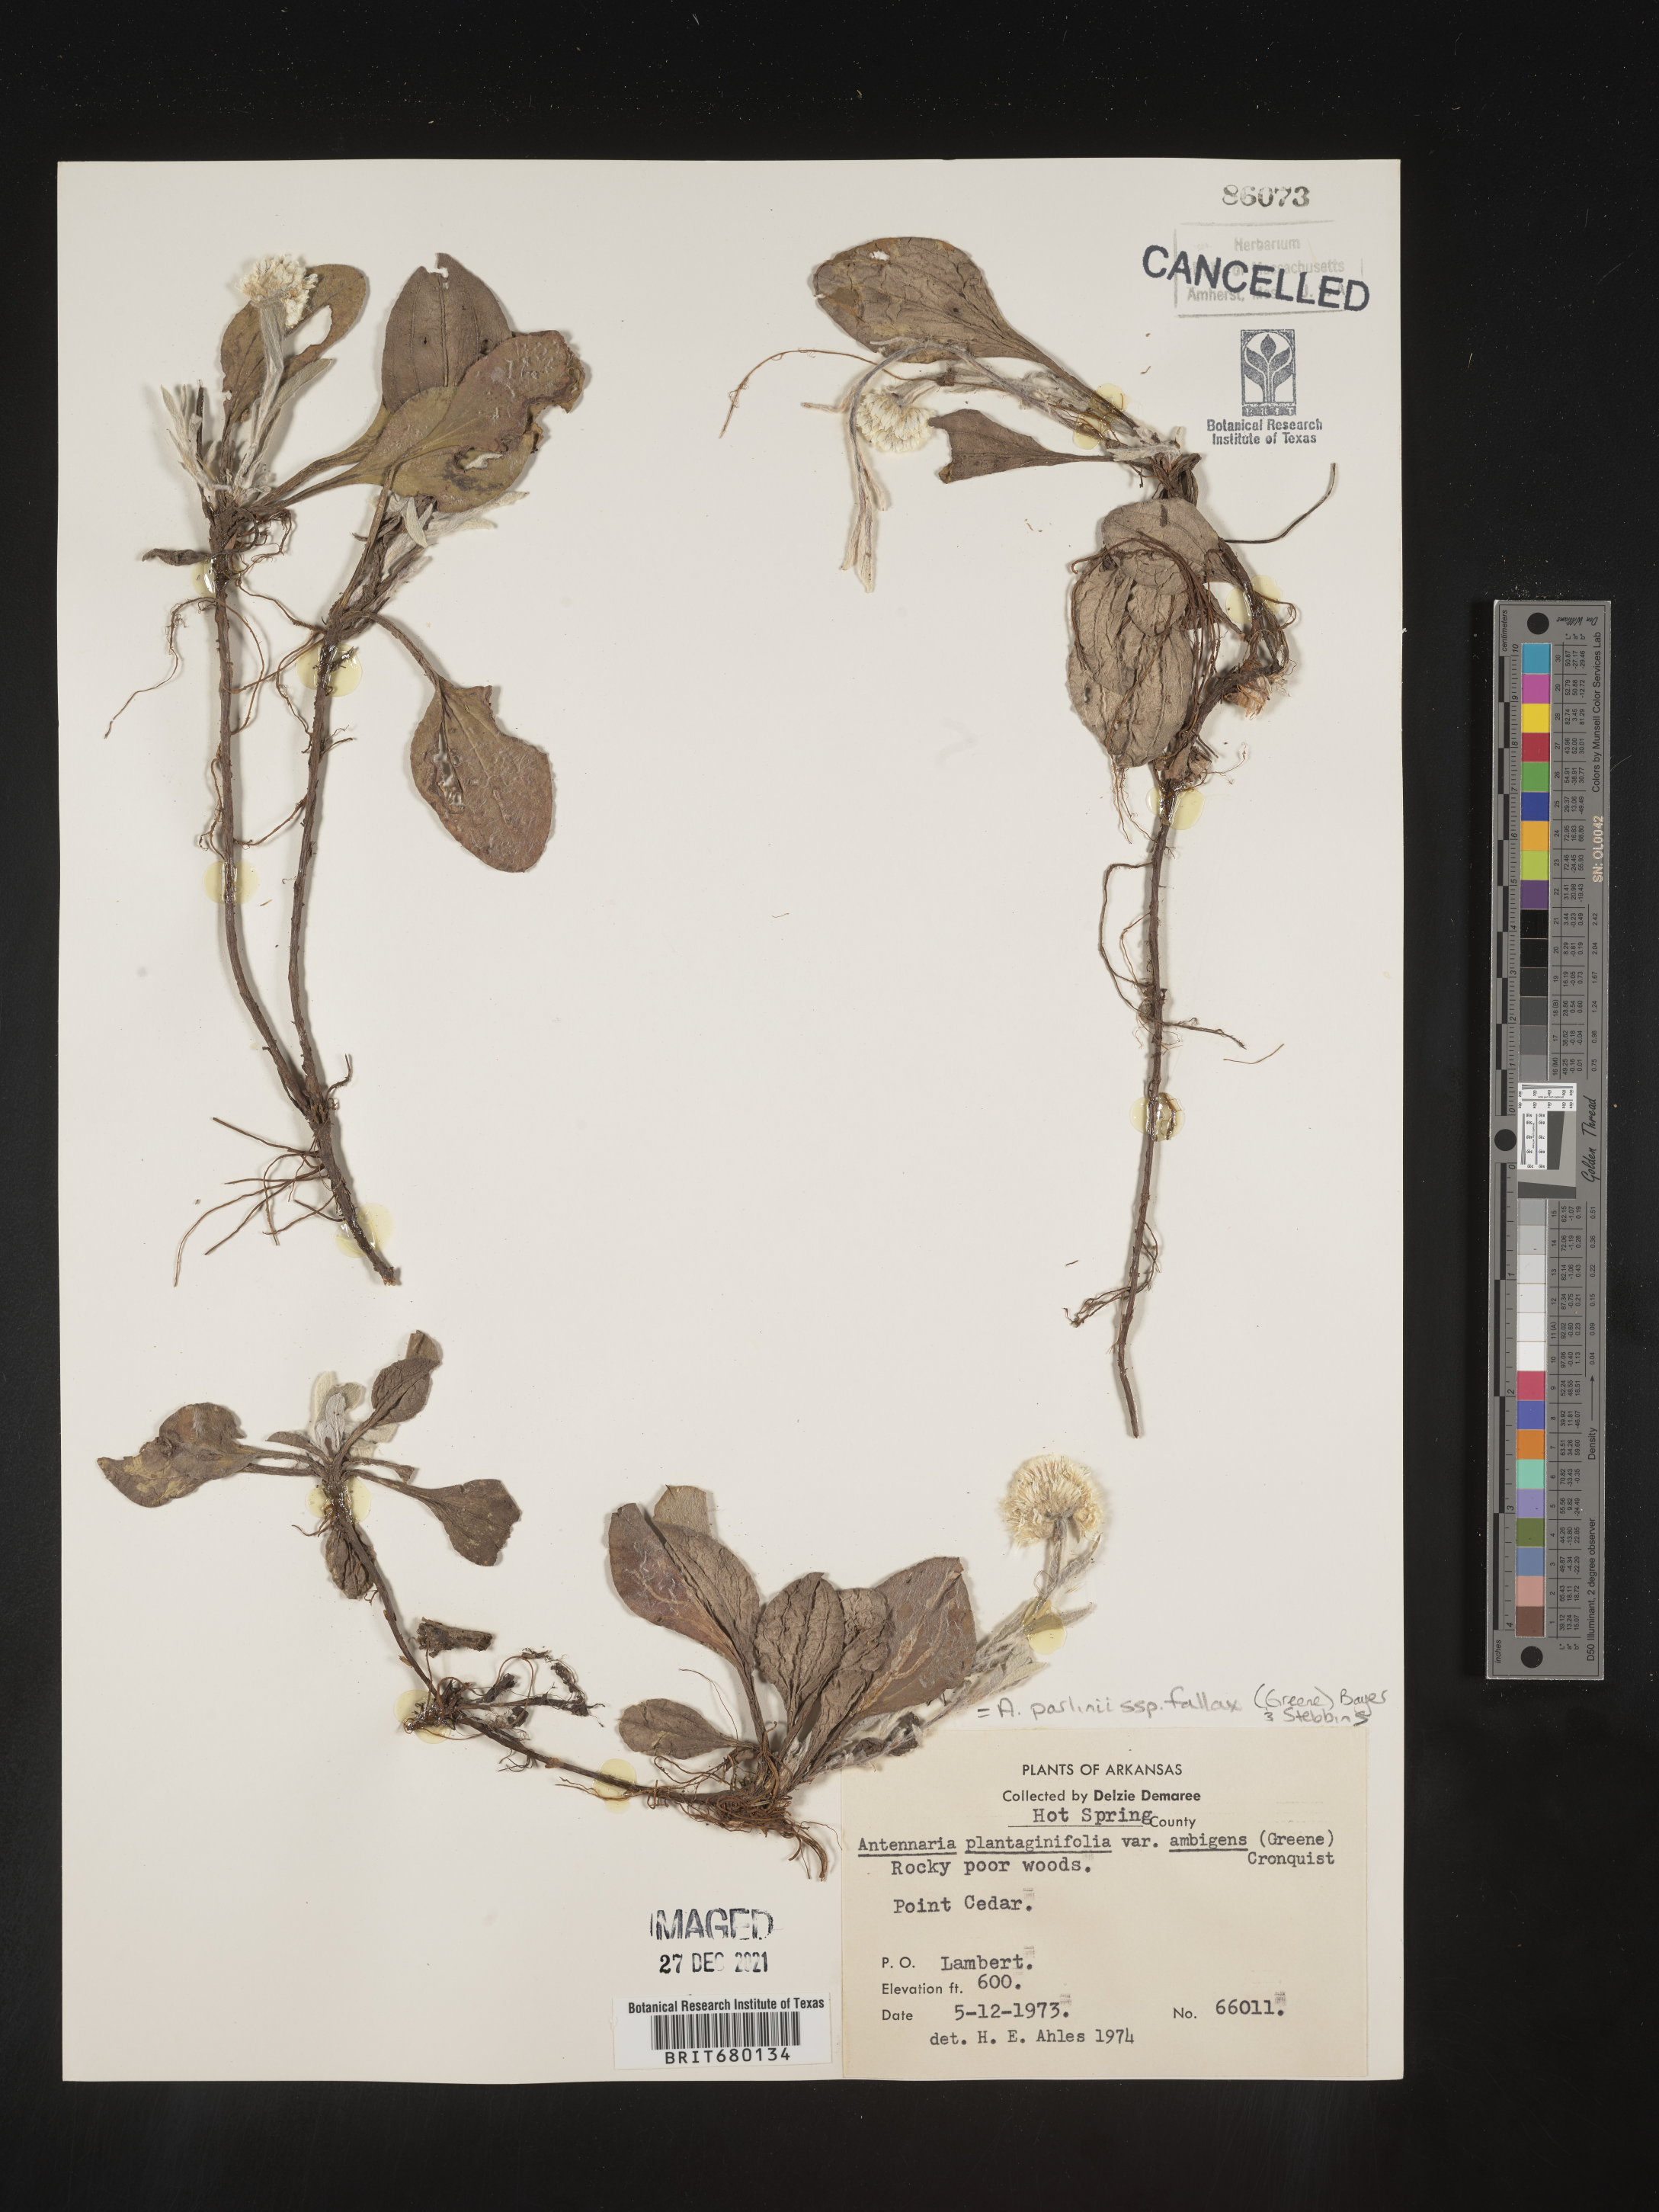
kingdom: Plantae
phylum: Tracheophyta
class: Magnoliopsida
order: Asterales
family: Asteraceae
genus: Antennaria
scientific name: Antennaria plantaginifolia
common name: Plantain-leaved pussytoes
